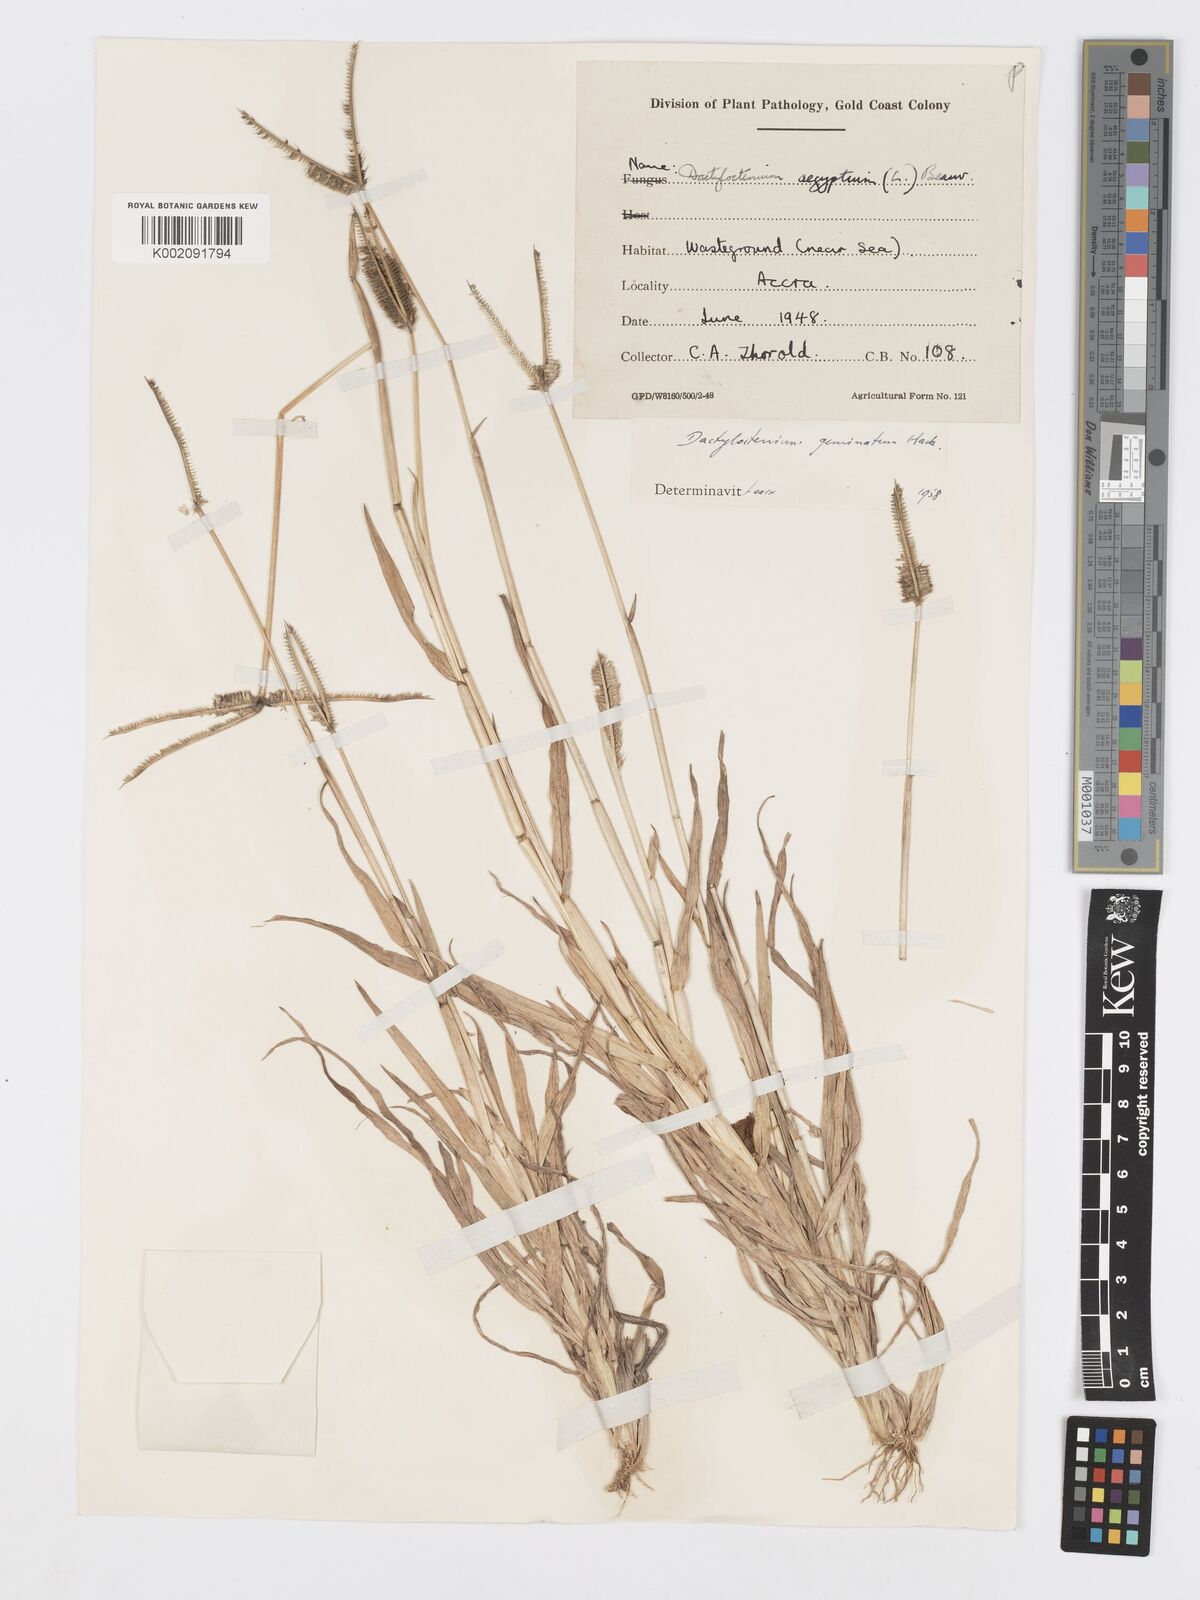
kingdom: Plantae
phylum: Tracheophyta
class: Liliopsida
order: Poales
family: Poaceae
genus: Dactyloctenium
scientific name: Dactyloctenium aegyptium
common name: Egyptian grass
